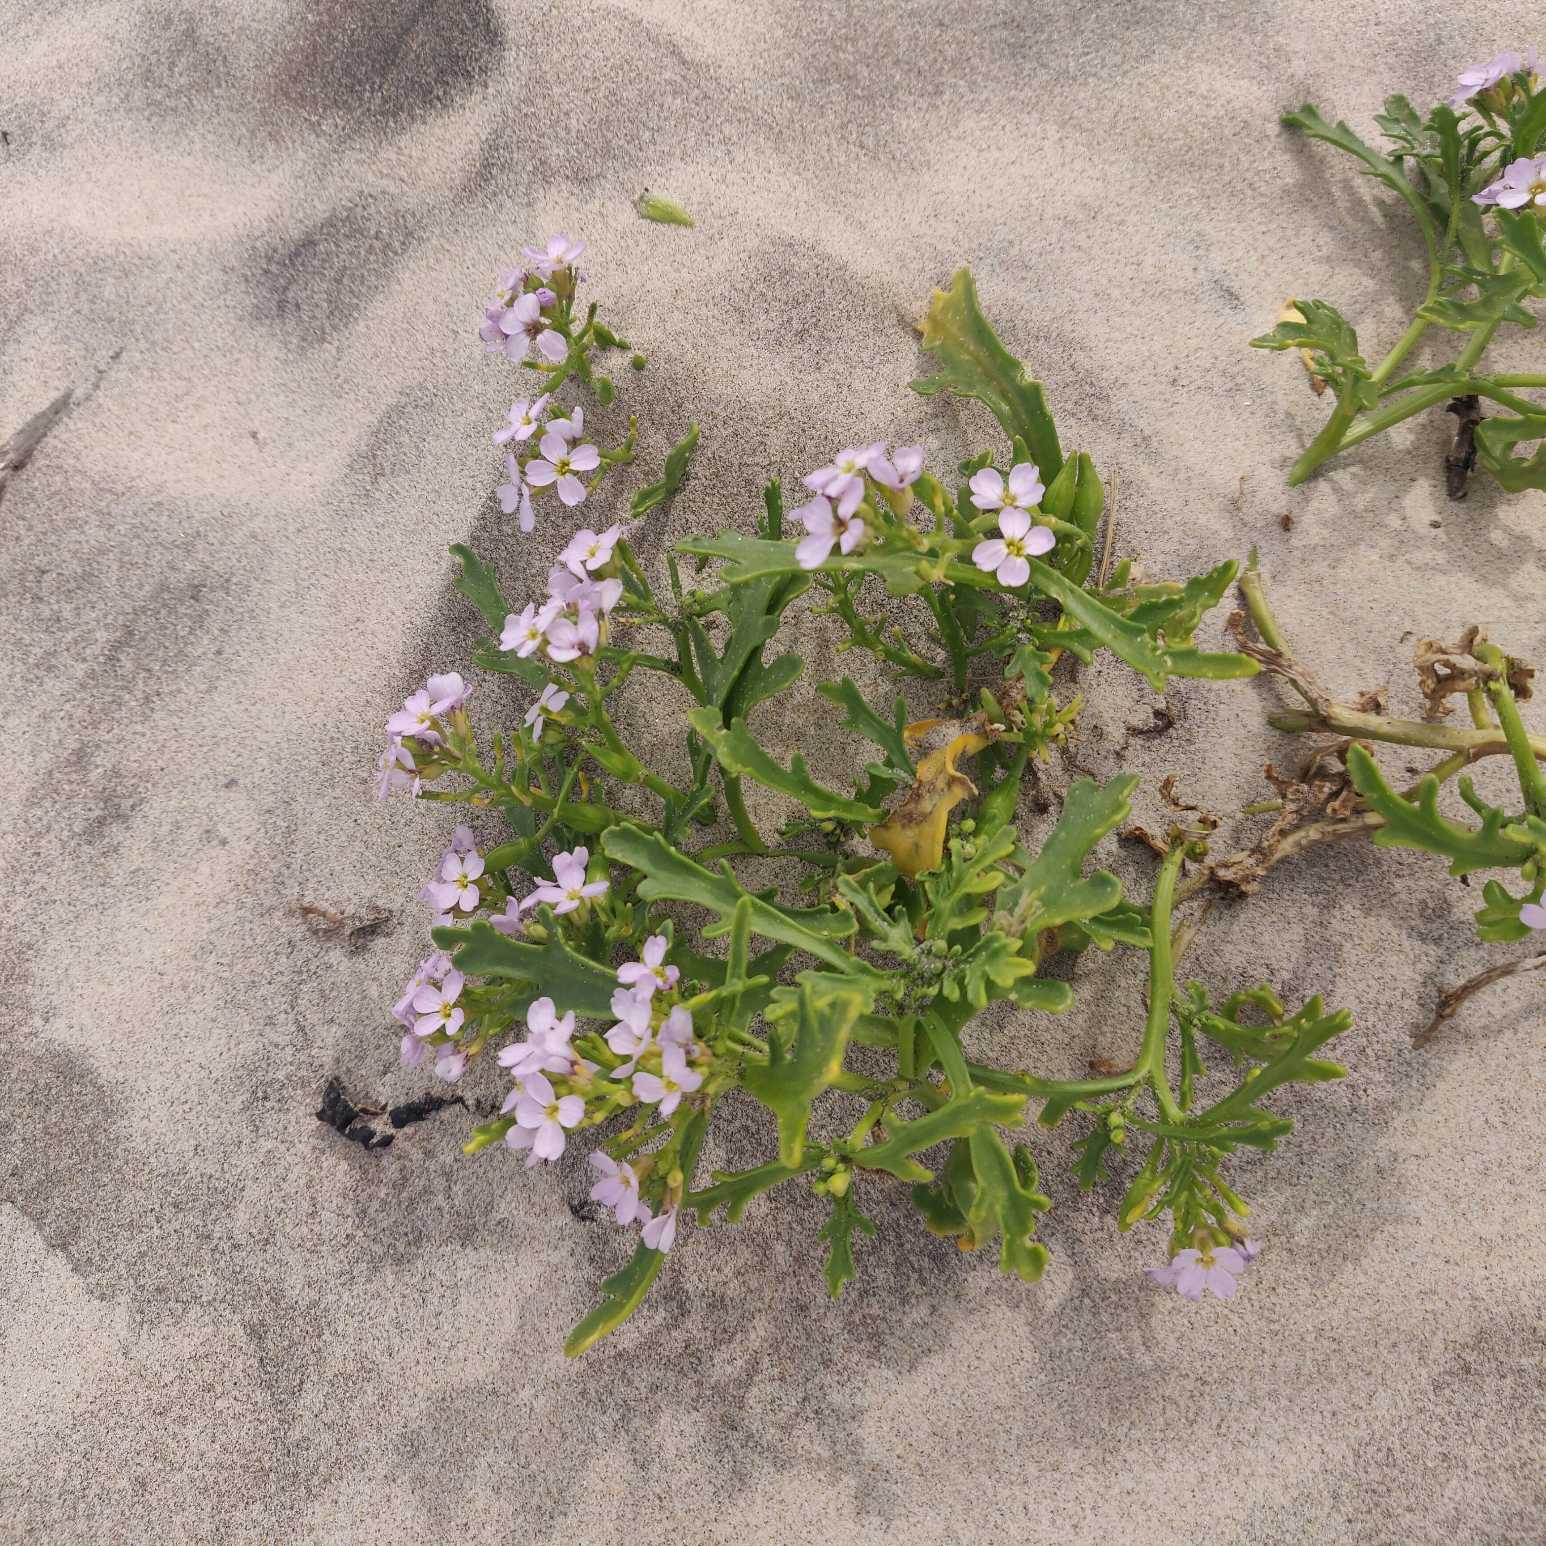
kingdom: Plantae
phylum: Tracheophyta
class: Magnoliopsida
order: Brassicales
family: Brassicaceae
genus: Cakile
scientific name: Cakile maritima
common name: Strandsennep
